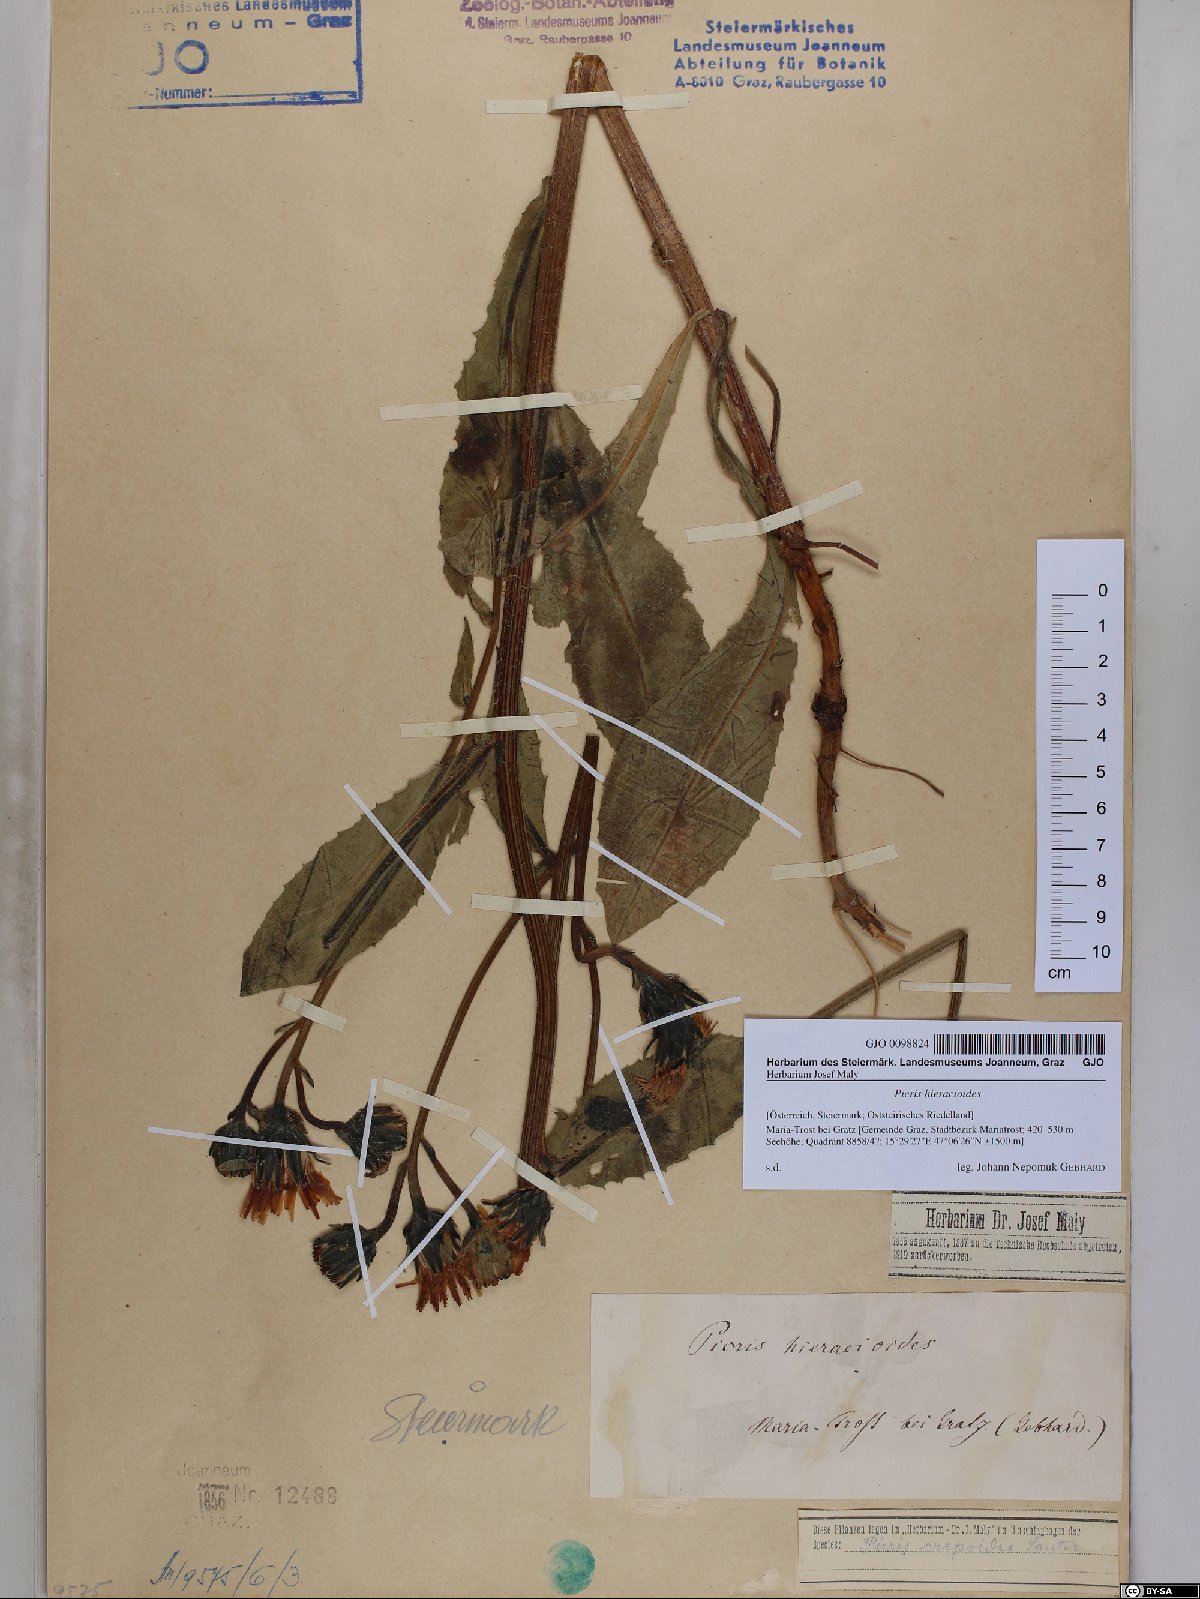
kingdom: Plantae
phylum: Tracheophyta
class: Magnoliopsida
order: Asterales
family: Asteraceae
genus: Picris
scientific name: Picris hieracioides
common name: Hawkweed oxtongue
